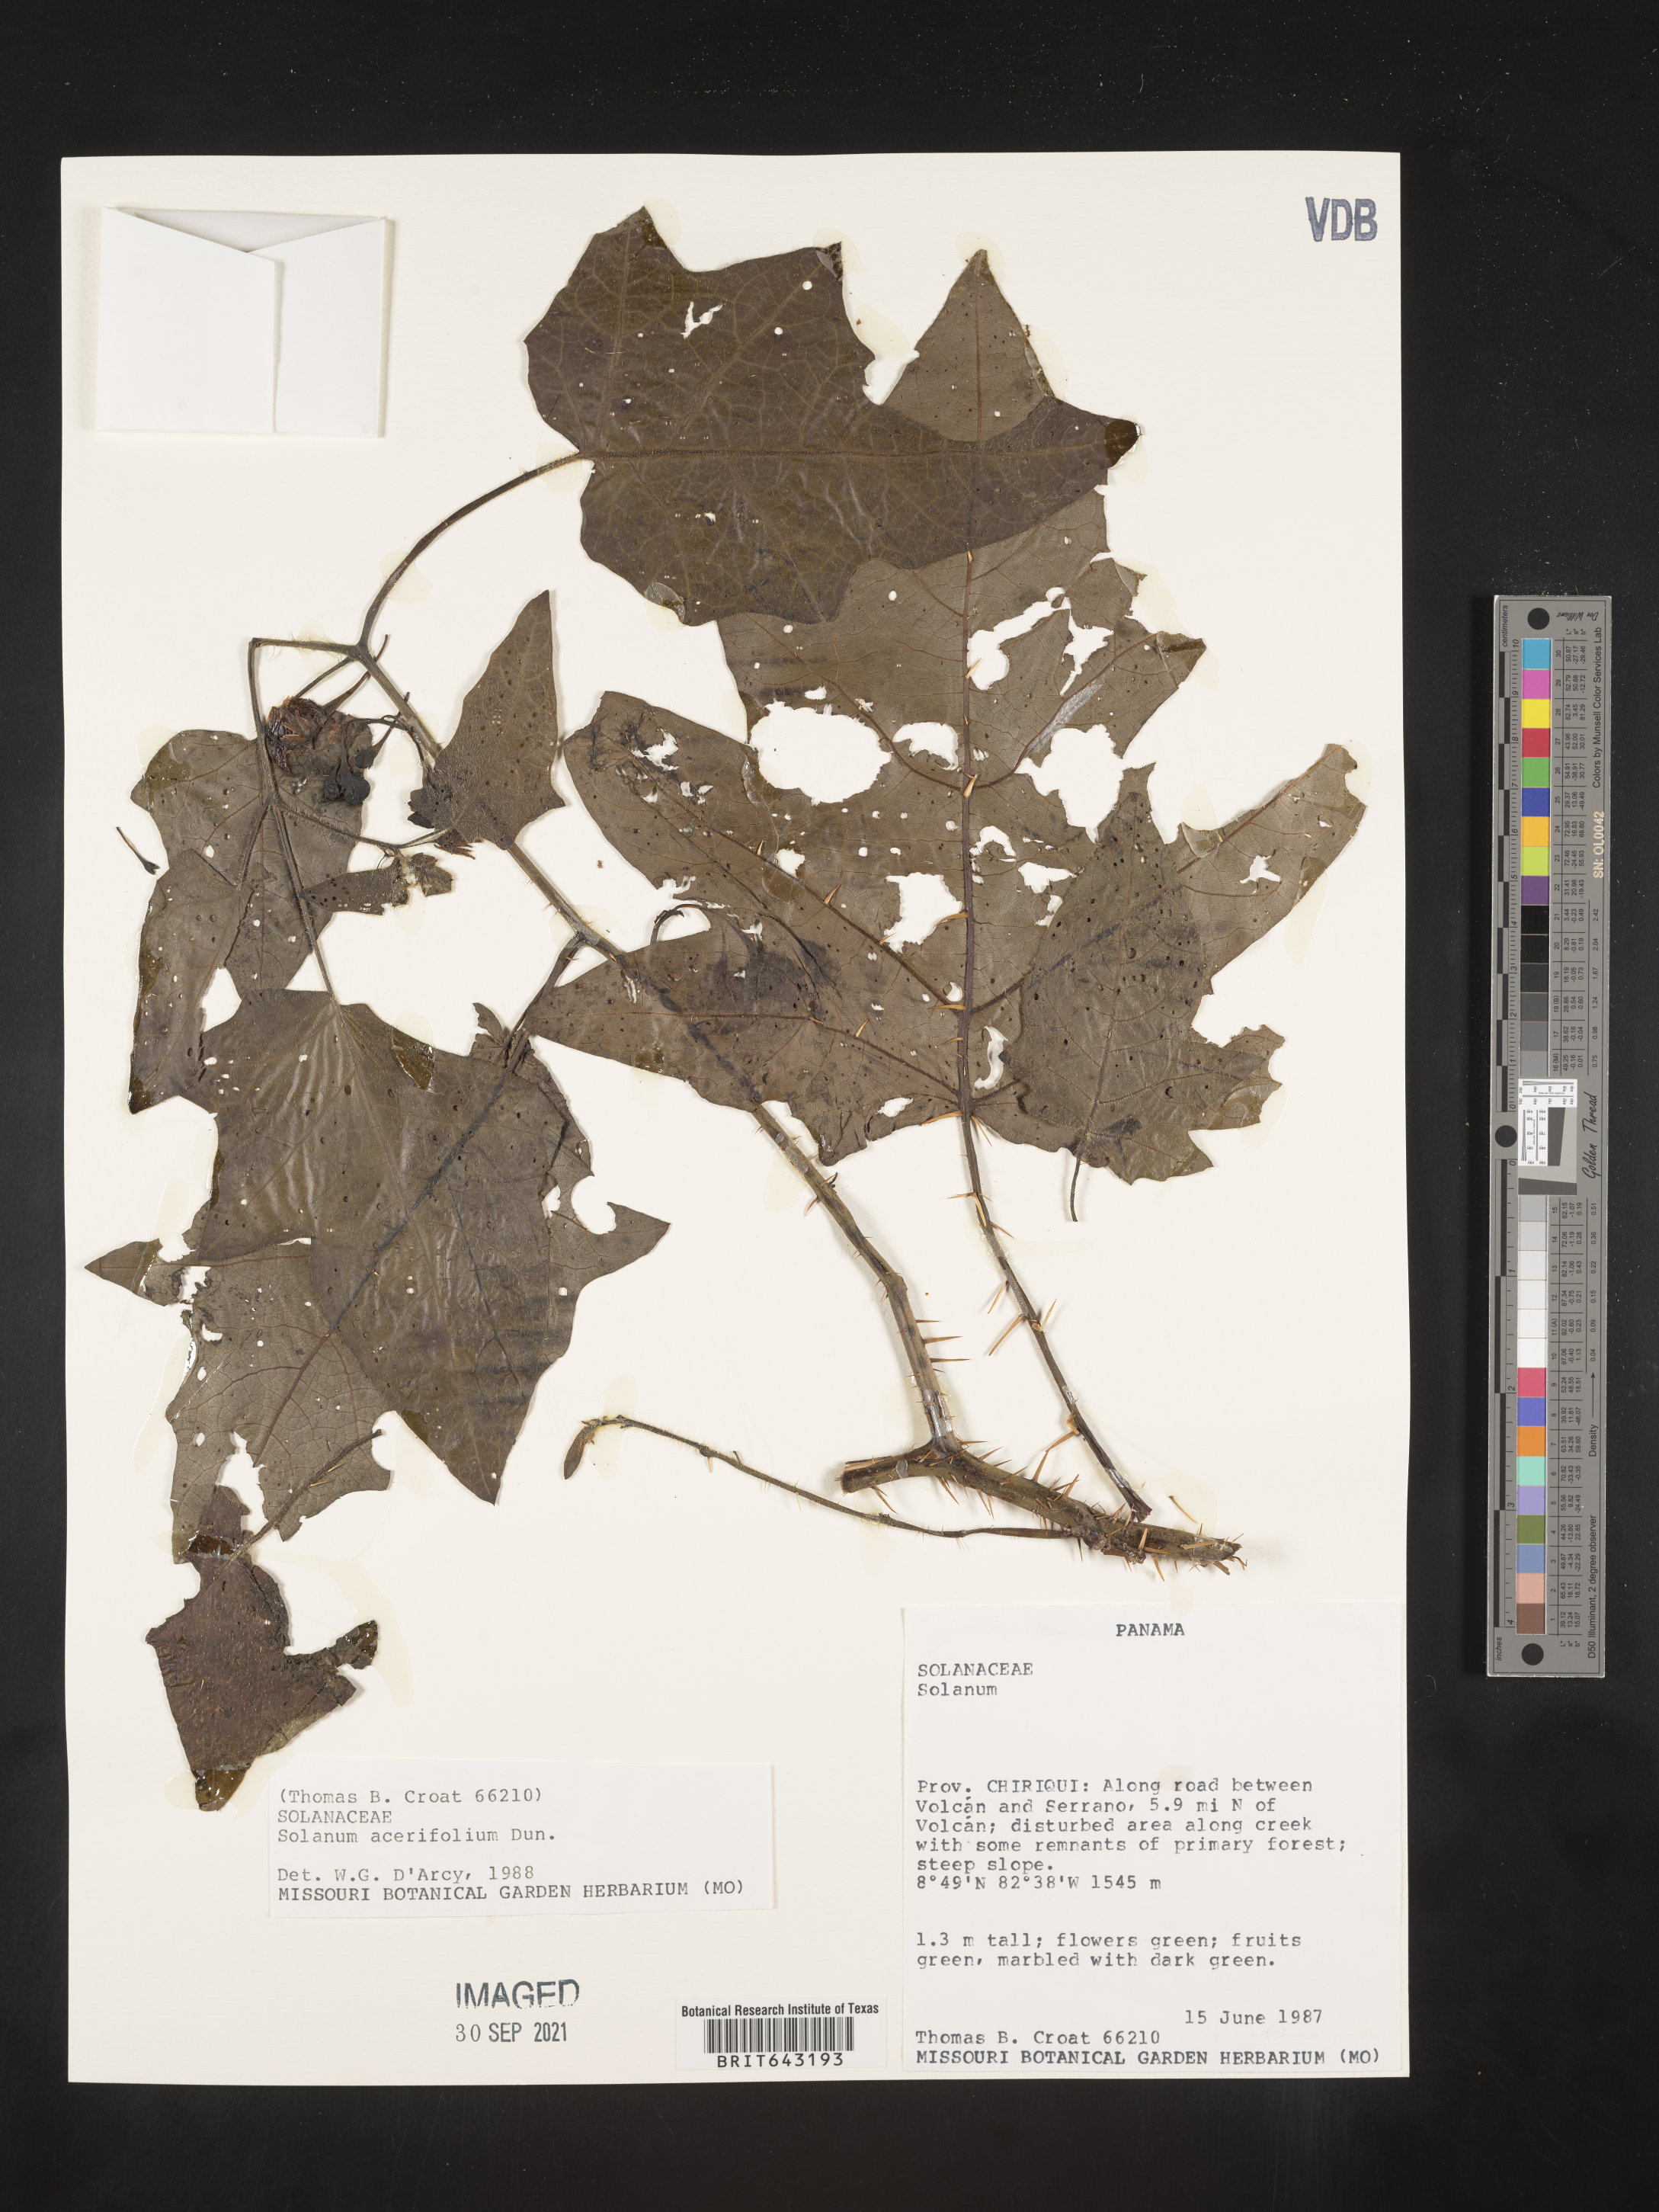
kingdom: Plantae
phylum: Tracheophyta
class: Magnoliopsida
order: Solanales
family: Solanaceae
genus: Solanum
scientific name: Solanum
